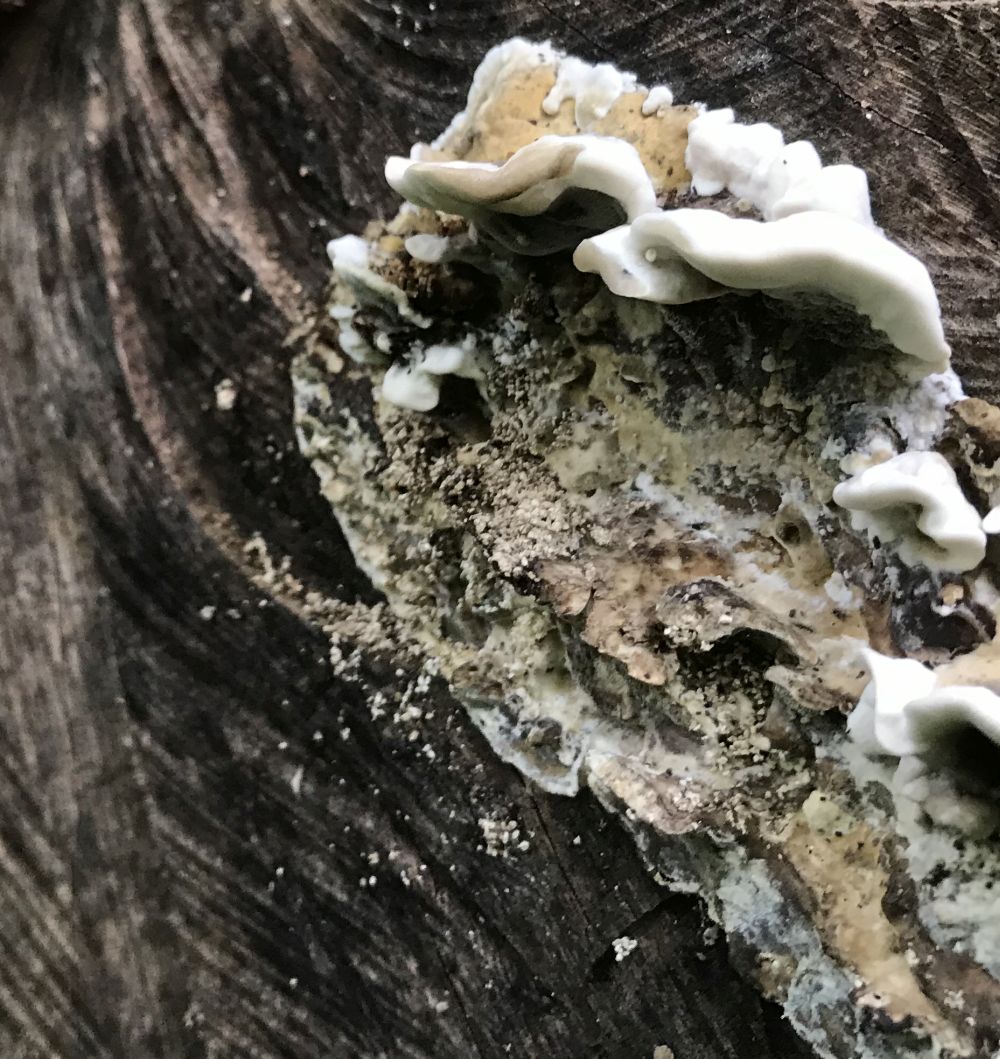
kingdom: Fungi
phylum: Basidiomycota
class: Agaricomycetes
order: Polyporales
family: Phanerochaetaceae
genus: Bjerkandera
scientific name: Bjerkandera adusta
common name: sveden sodporesvamp
